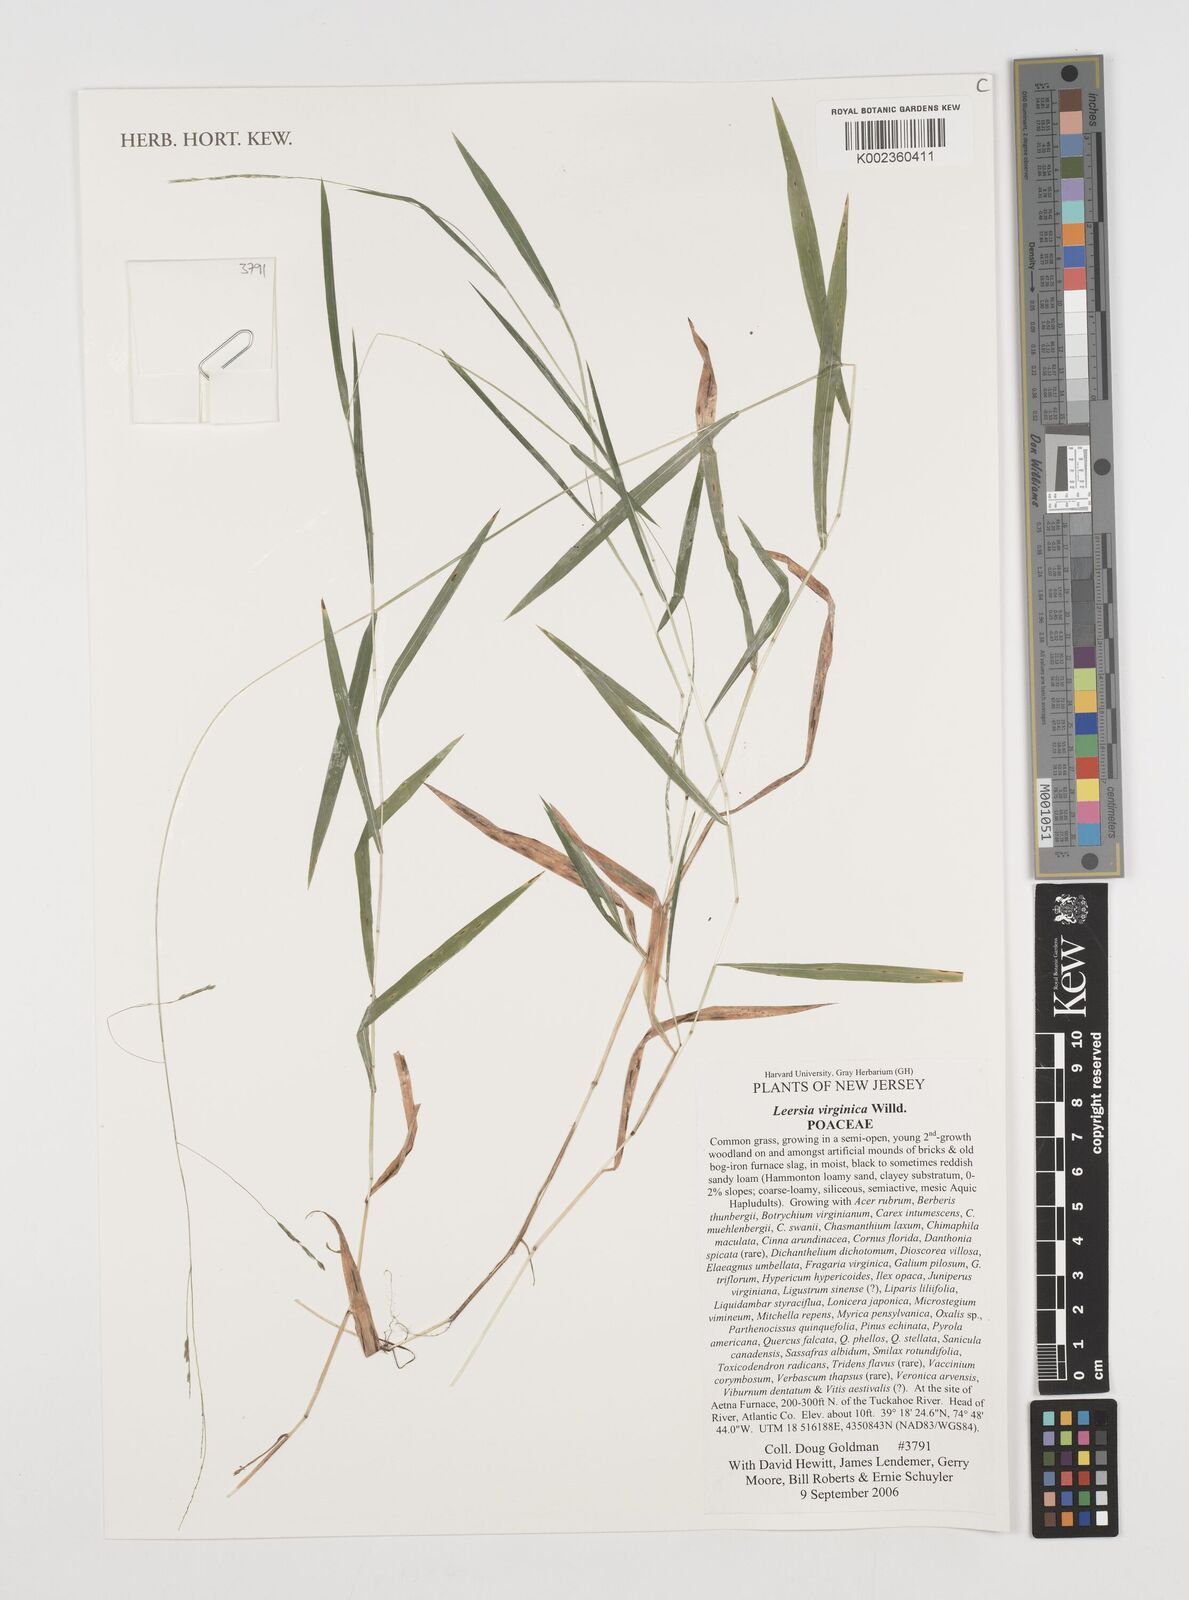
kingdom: Plantae
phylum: Tracheophyta
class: Liliopsida
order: Poales
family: Poaceae
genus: Leersia
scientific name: Leersia virginica
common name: White cutgrass
